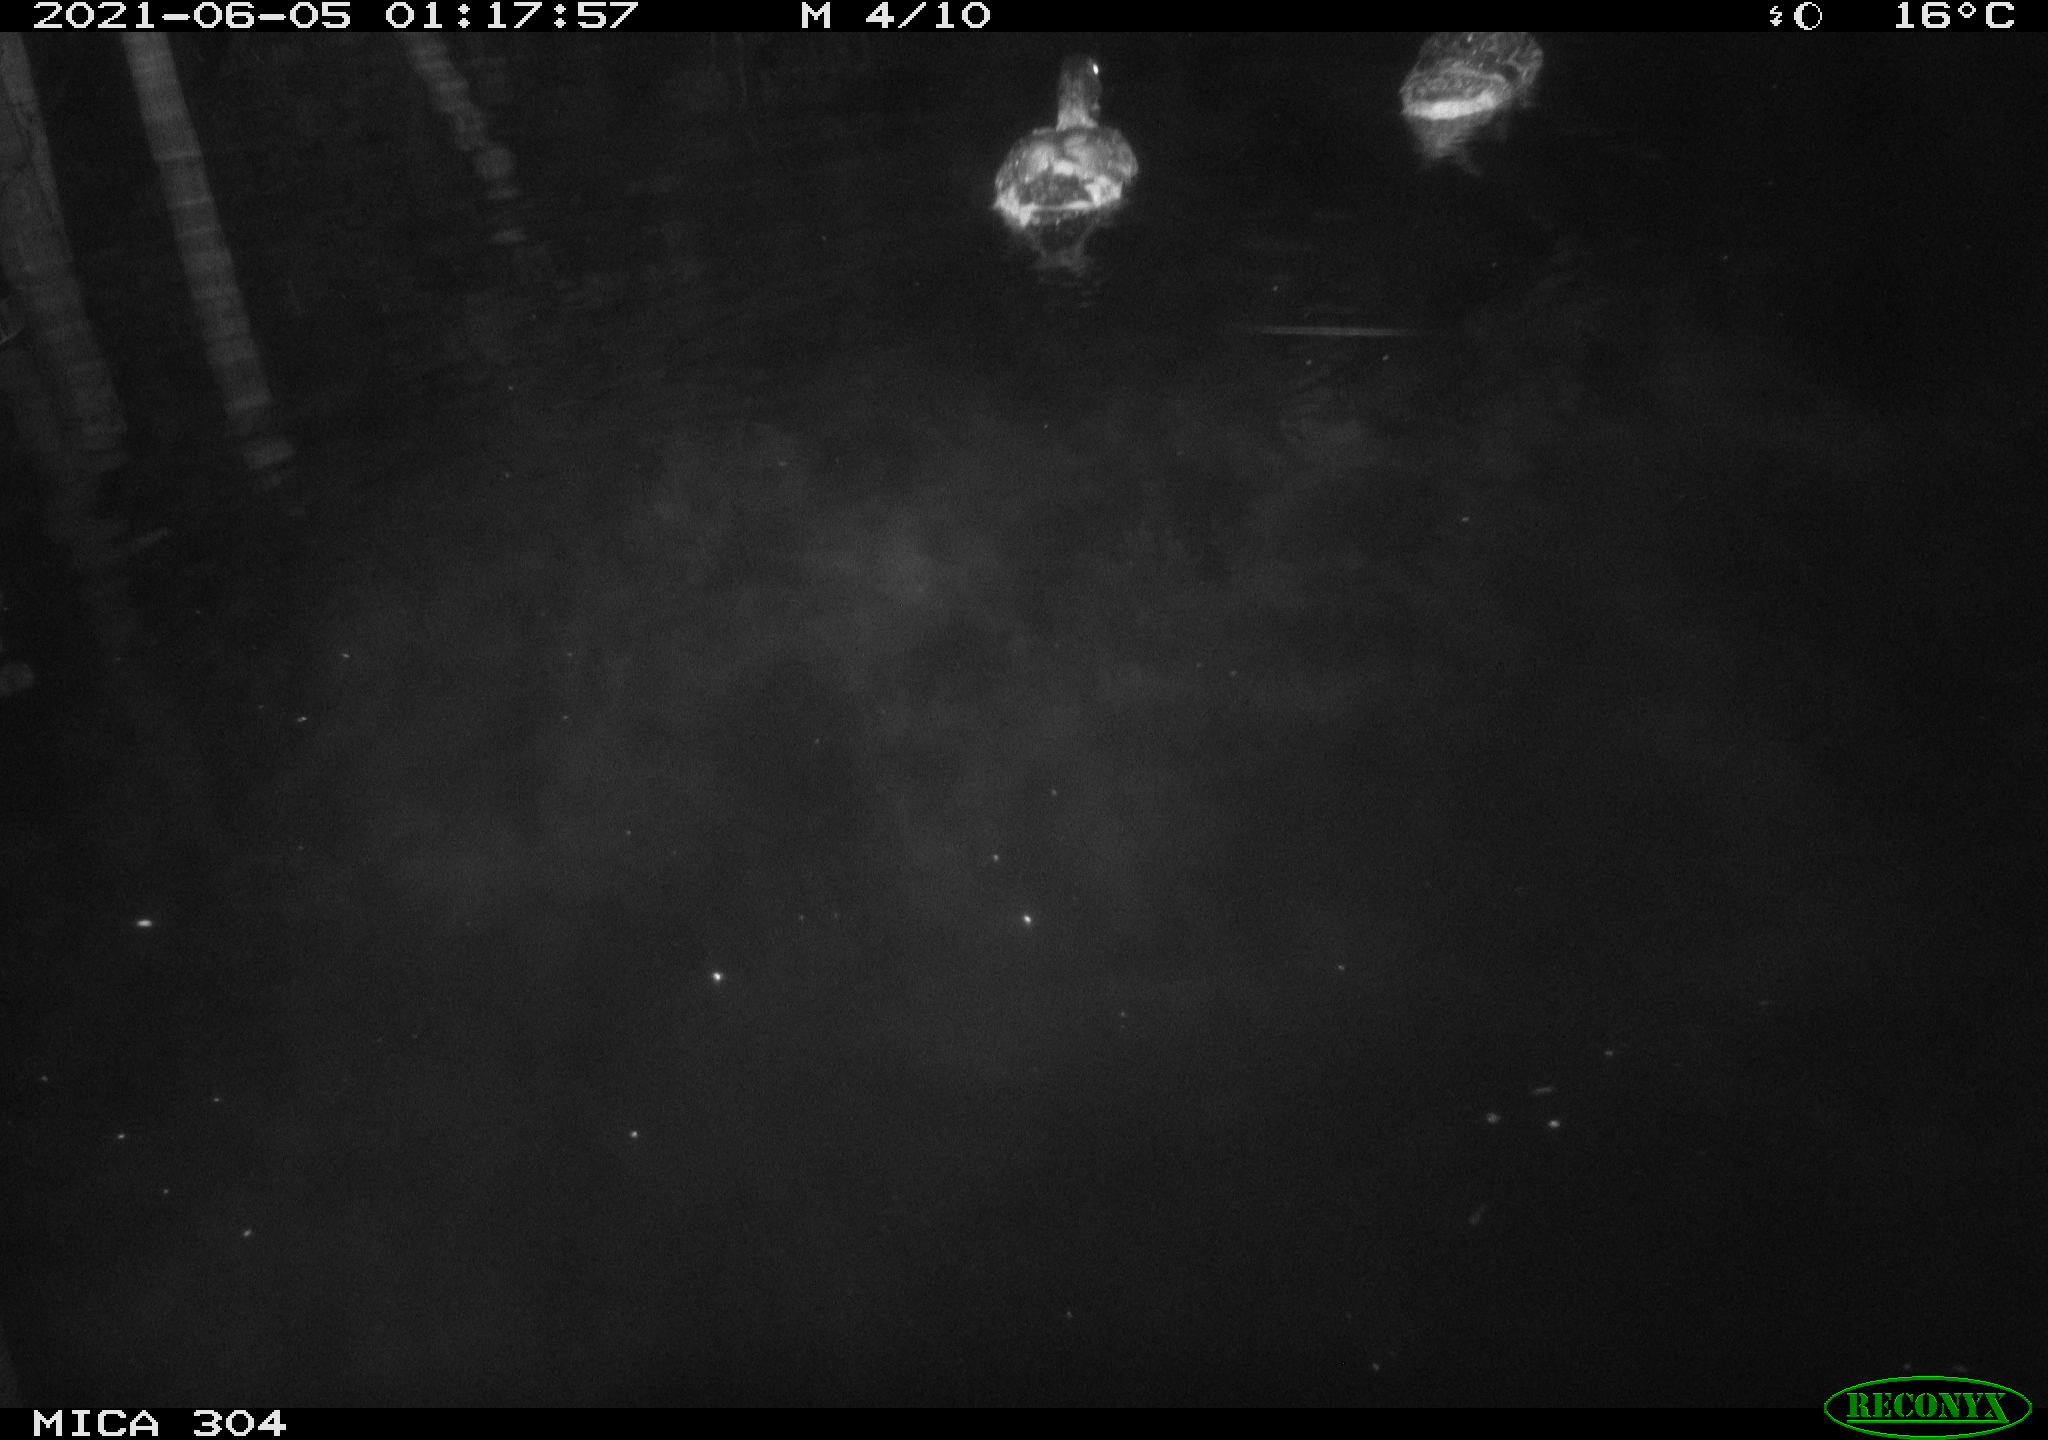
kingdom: Animalia
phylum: Chordata
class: Aves
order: Anseriformes
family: Anatidae
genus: Anas
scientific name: Anas platyrhynchos
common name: Mallard
